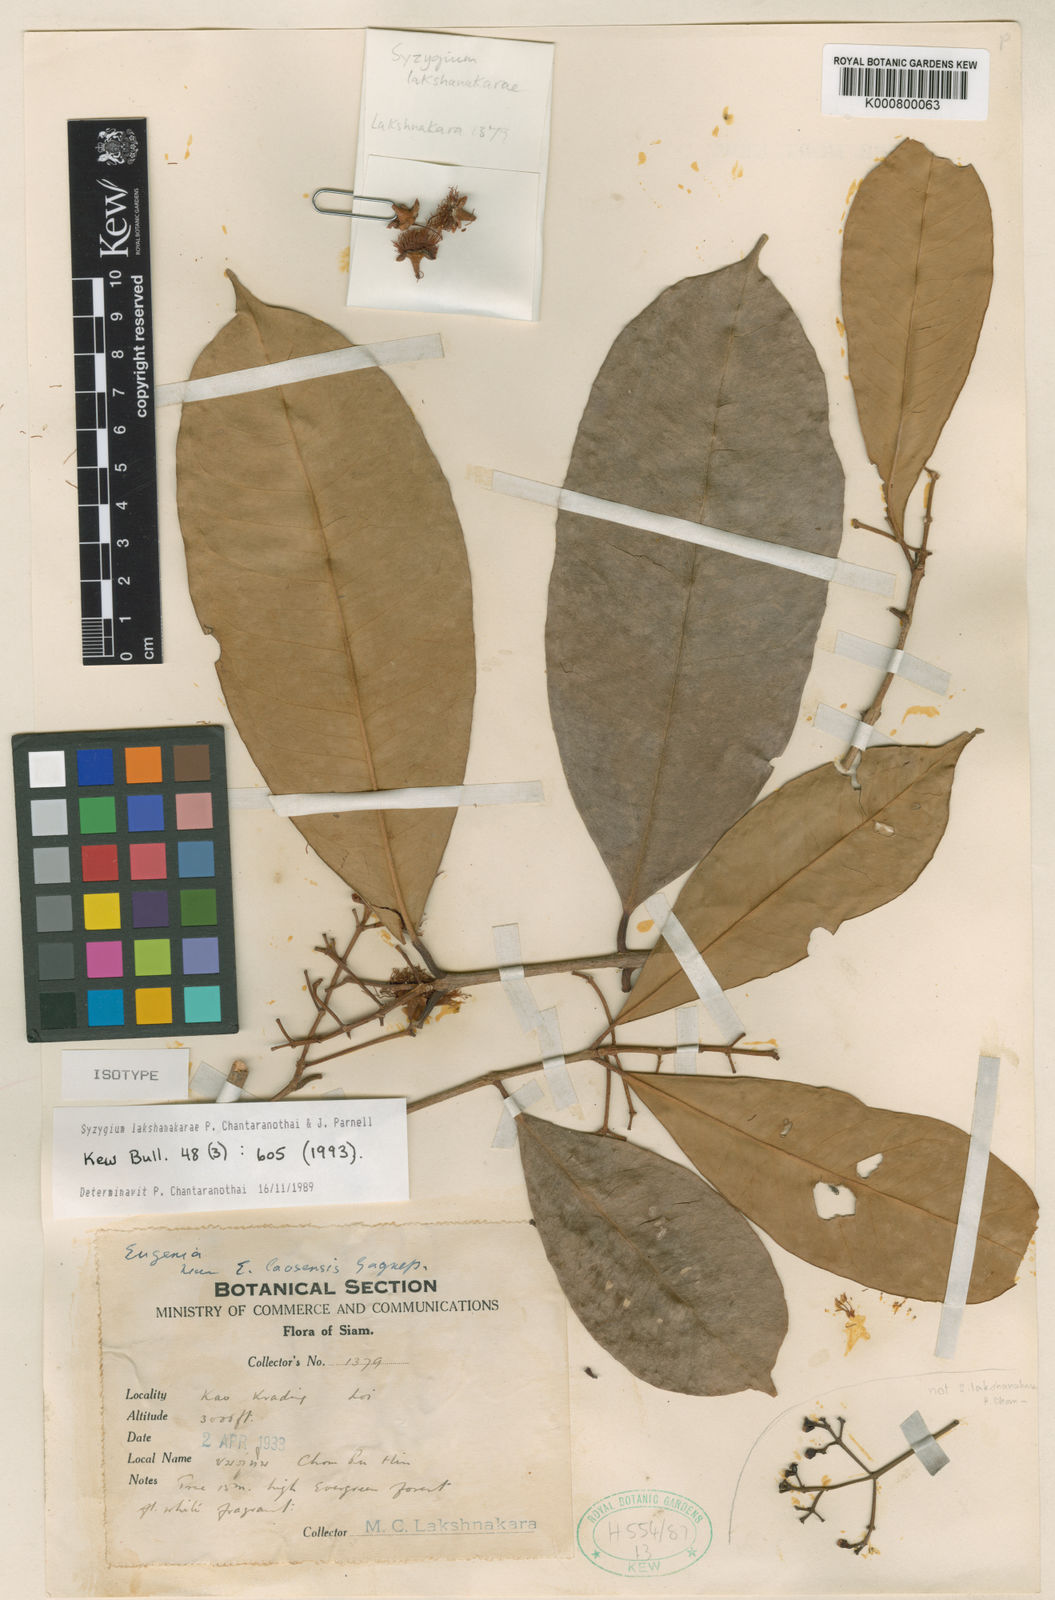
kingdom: Plantae
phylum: Tracheophyta
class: Magnoliopsida
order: Myrtales
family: Myrtaceae
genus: Syzygium
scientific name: Syzygium lakshnakarae
